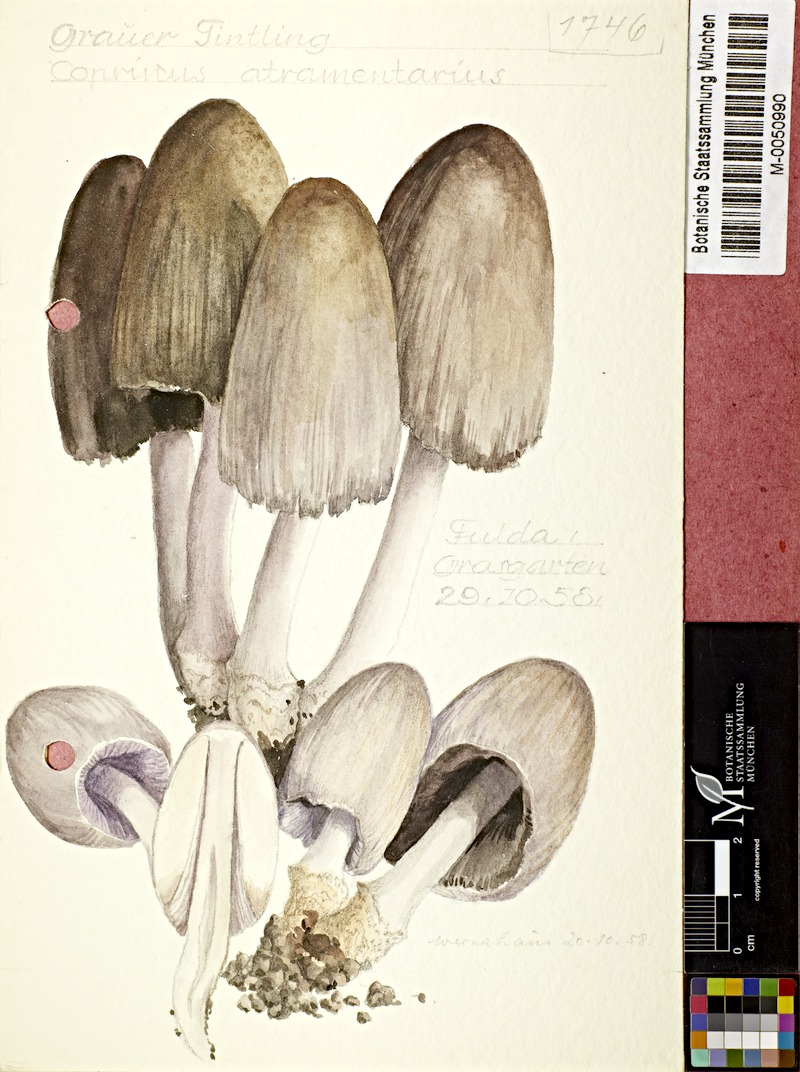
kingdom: Fungi
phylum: Basidiomycota
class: Agaricomycetes
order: Agaricales
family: Psathyrellaceae
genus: Coprinopsis
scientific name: Coprinopsis atramentaria
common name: Common ink-cap
